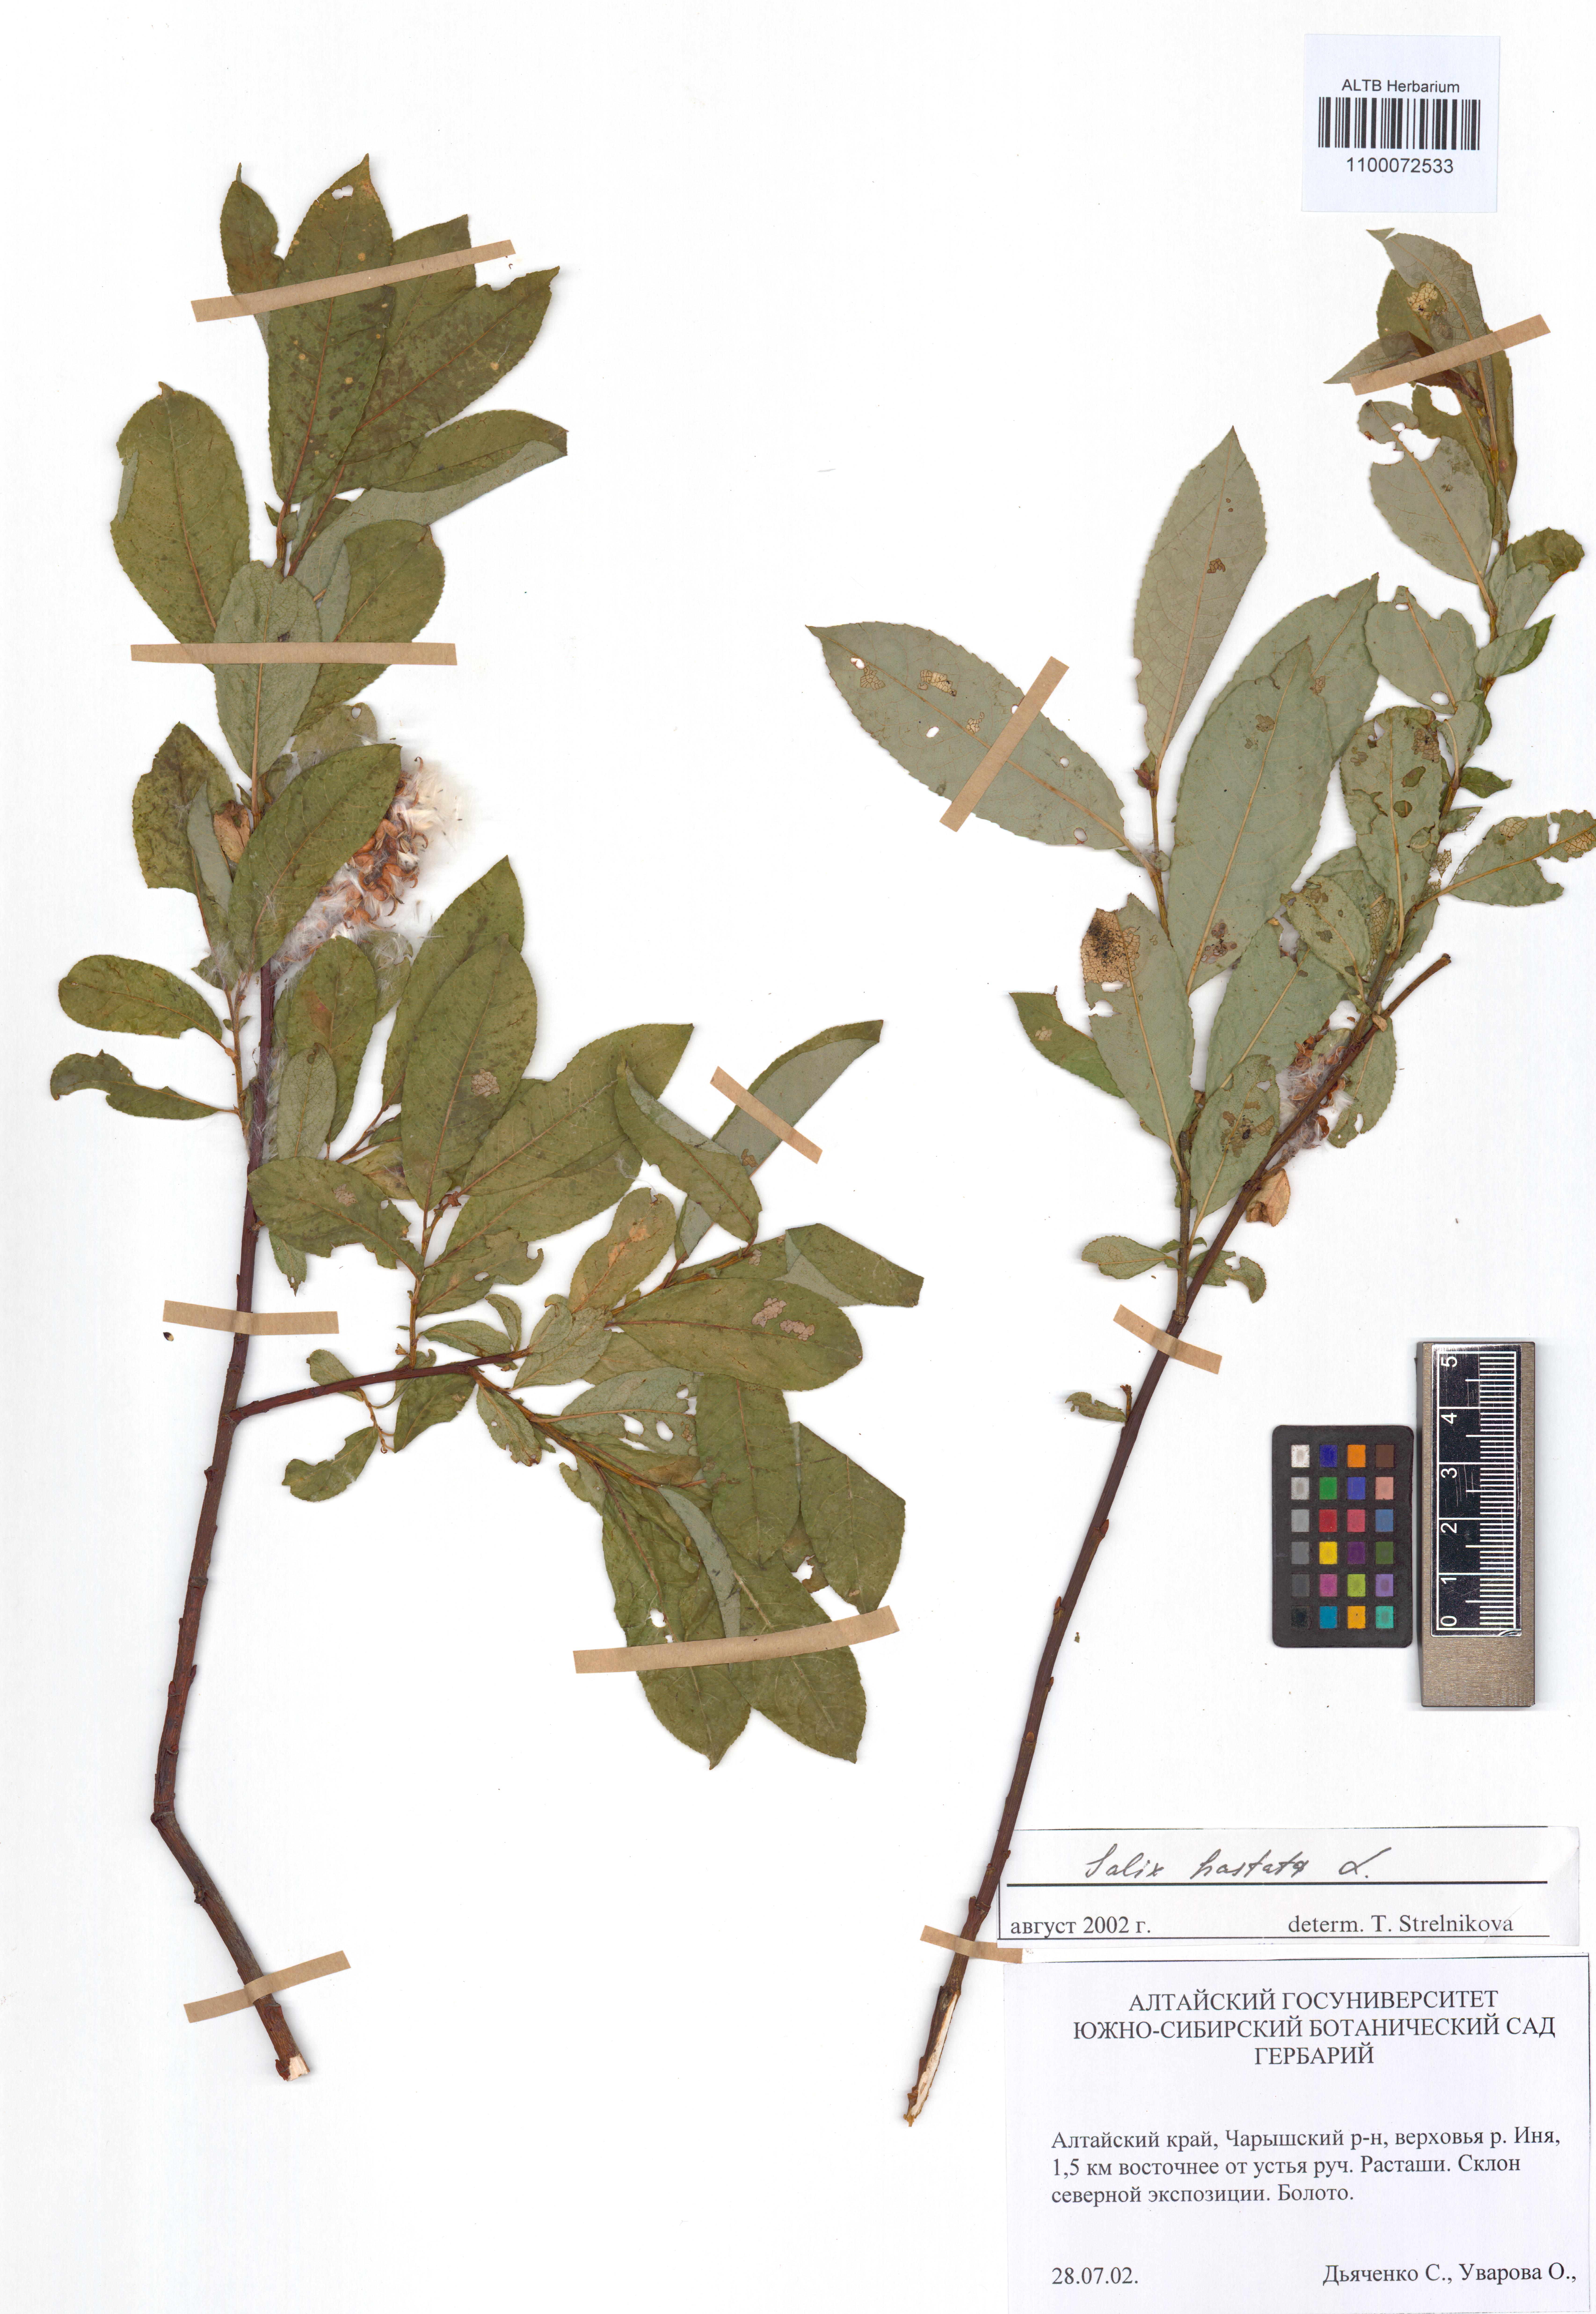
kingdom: Plantae
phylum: Tracheophyta
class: Magnoliopsida
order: Malpighiales
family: Salicaceae
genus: Salix
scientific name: Salix hastata
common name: Halberd willow
